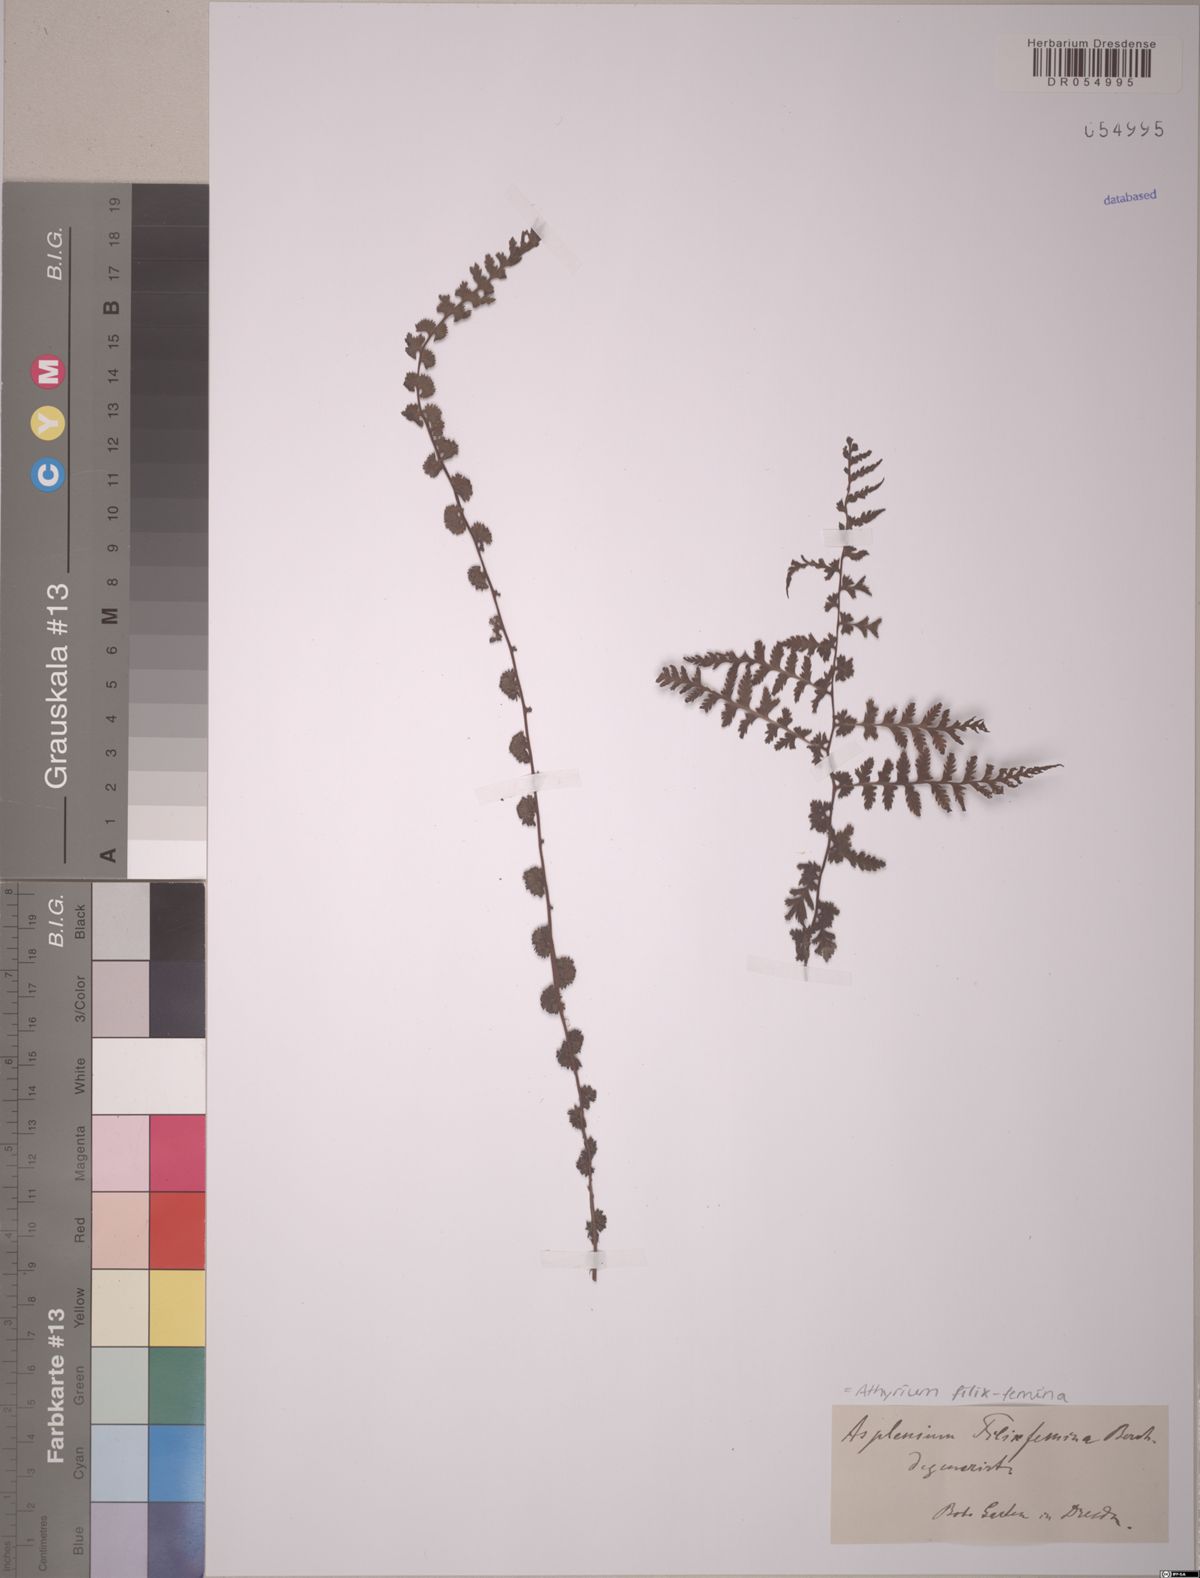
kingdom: Plantae
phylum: Tracheophyta
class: Polypodiopsida
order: Polypodiales
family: Athyriaceae
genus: Athyrium
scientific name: Athyrium filix-femina
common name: Lady fern
